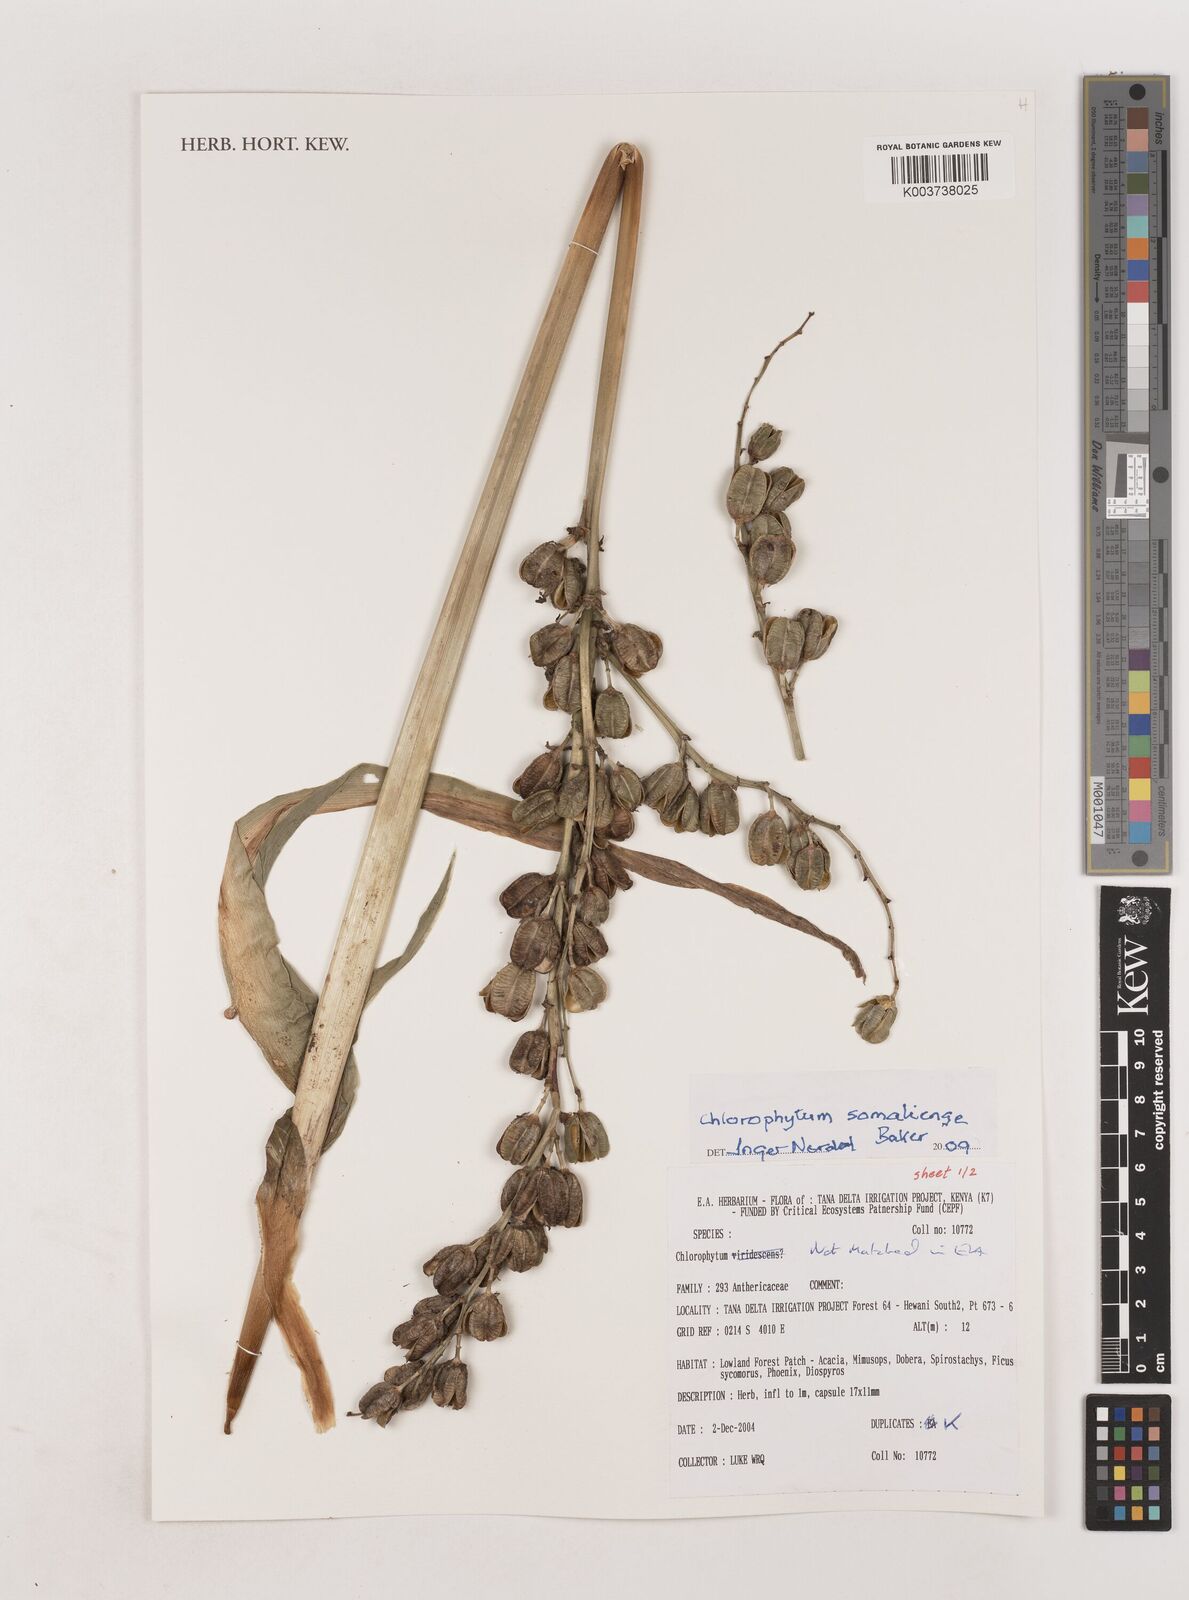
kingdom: Plantae
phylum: Tracheophyta
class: Liliopsida
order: Asparagales
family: Asparagaceae
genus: Chlorophytum
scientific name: Chlorophytum somaliense
